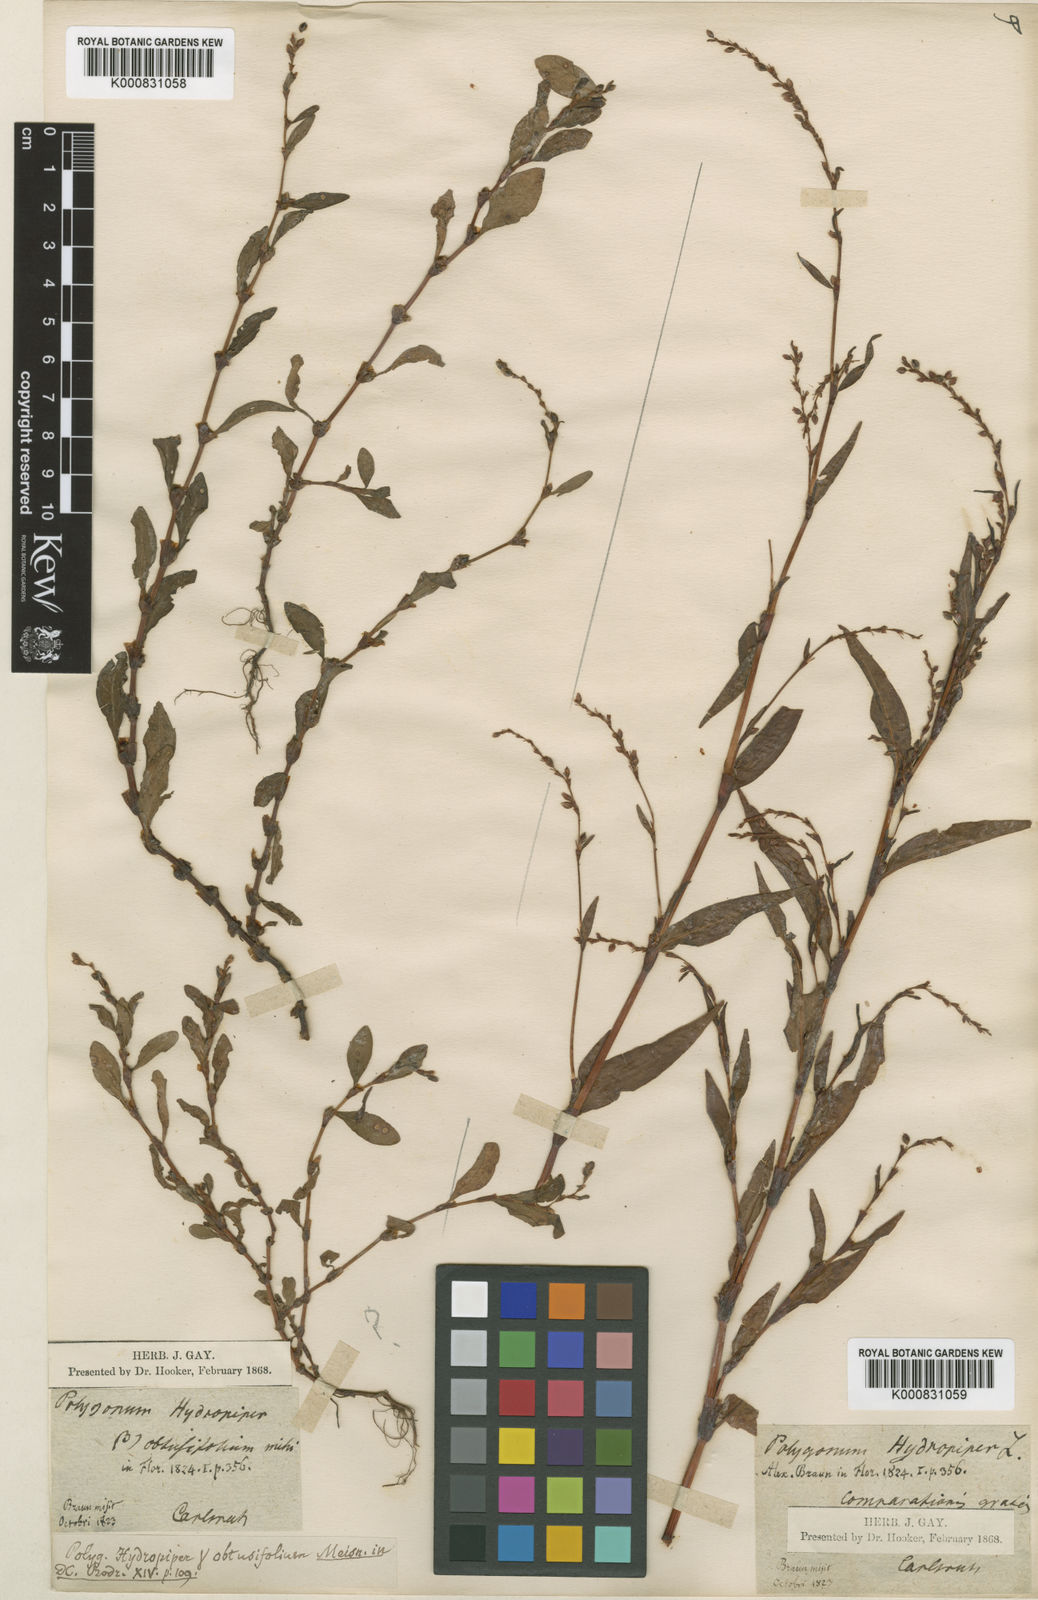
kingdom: Plantae
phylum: Tracheophyta
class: Magnoliopsida
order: Caryophyllales
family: Polygonaceae
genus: Persicaria
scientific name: Persicaria hydropiper
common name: Water-pepper
